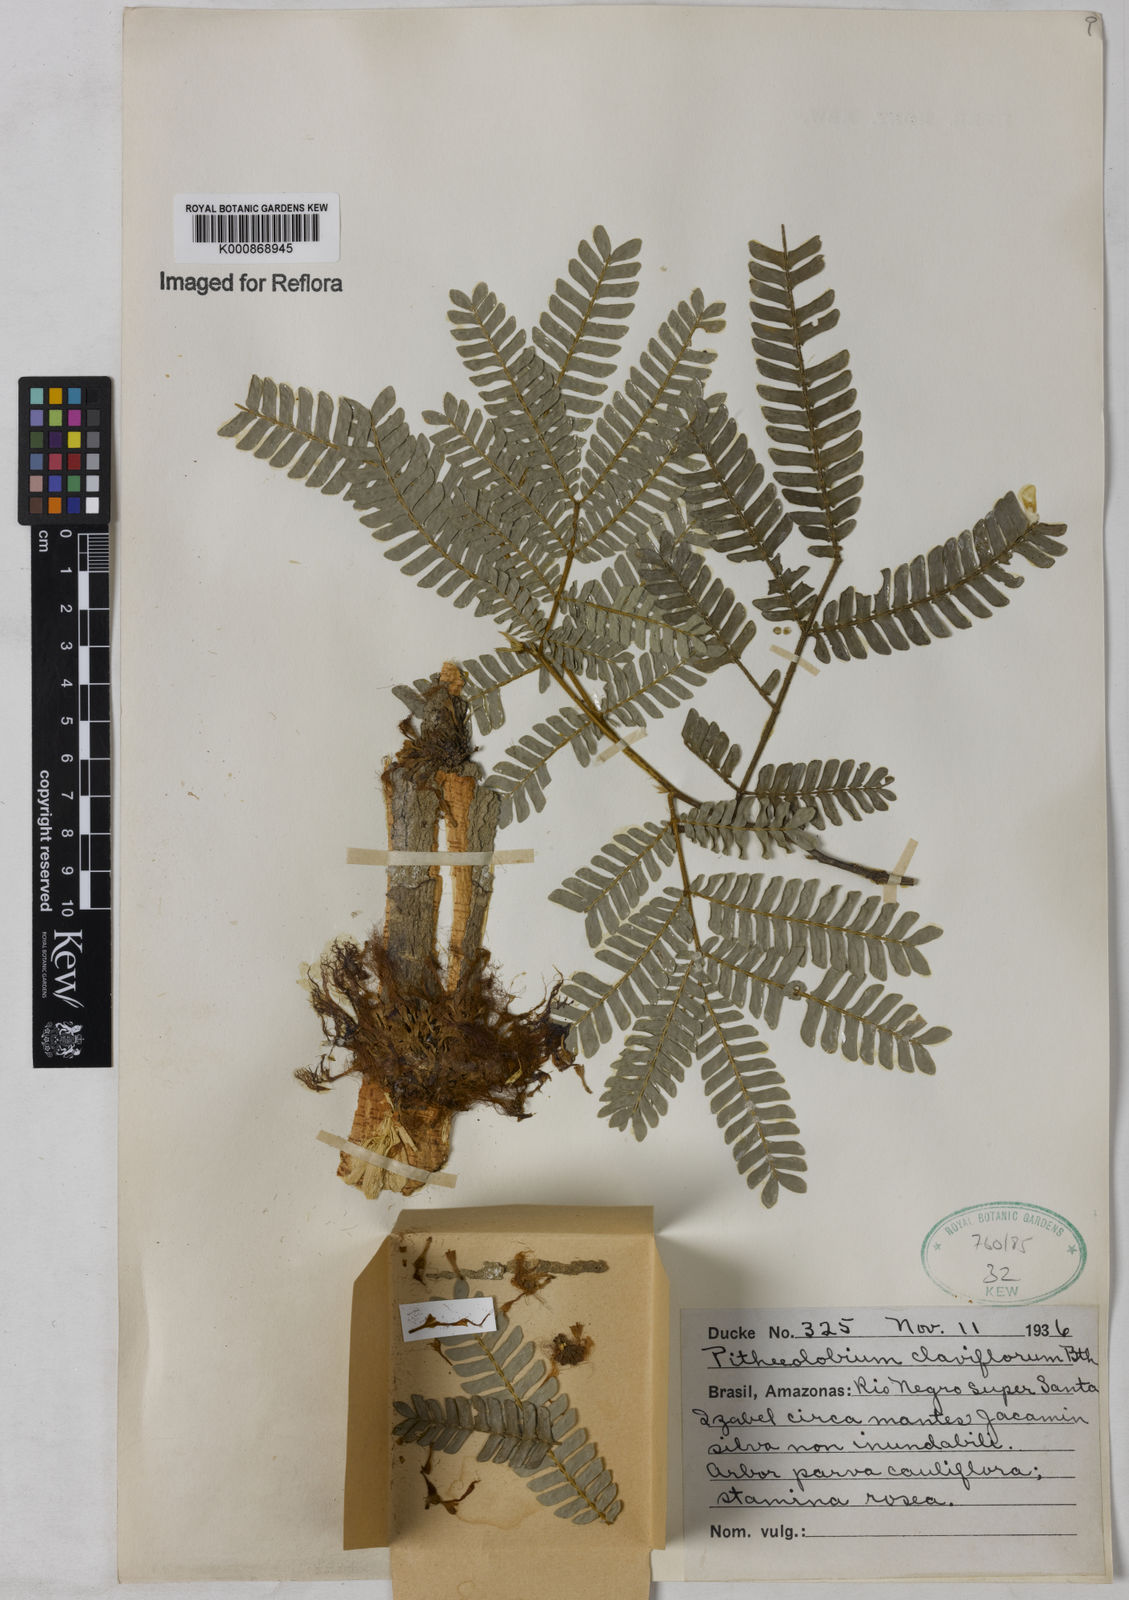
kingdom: Plantae
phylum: Tracheophyta
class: Magnoliopsida
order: Fabales
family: Fabaceae
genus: Zygia
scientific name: Zygia claviflora
